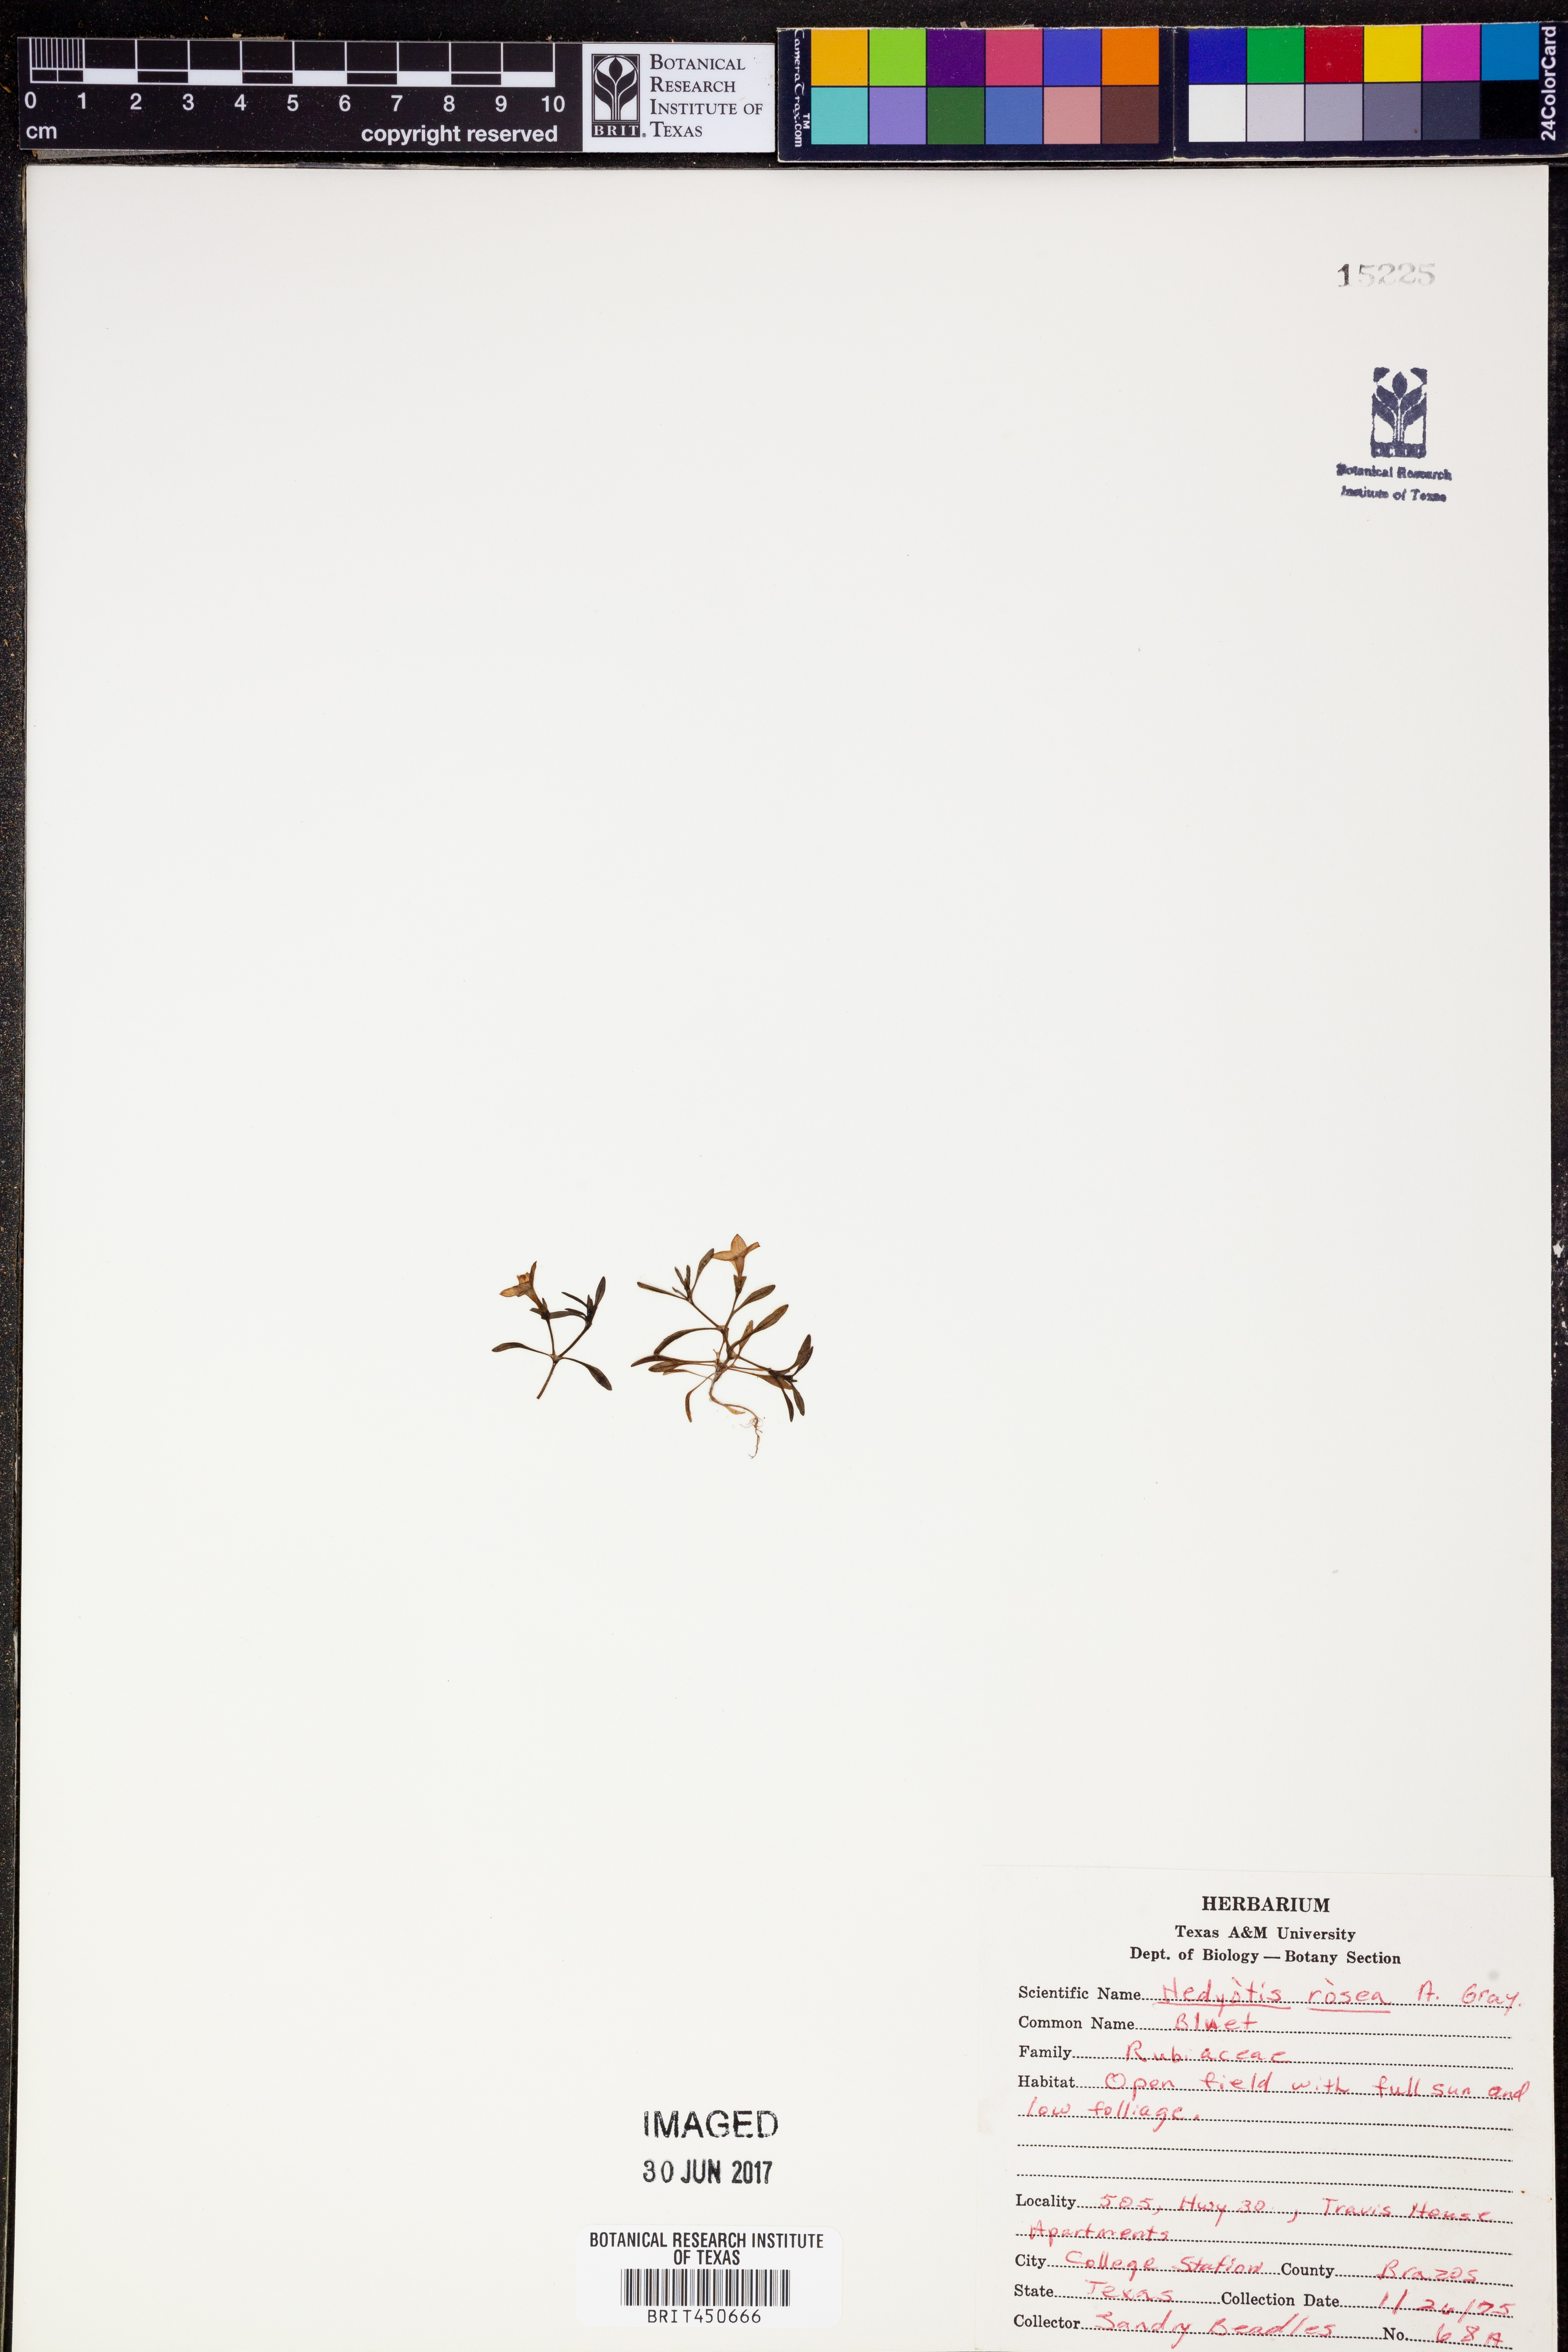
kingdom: Plantae
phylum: Tracheophyta
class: Magnoliopsida
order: Gentianales
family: Rubiaceae
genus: Houstonia
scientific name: Houstonia rosea
